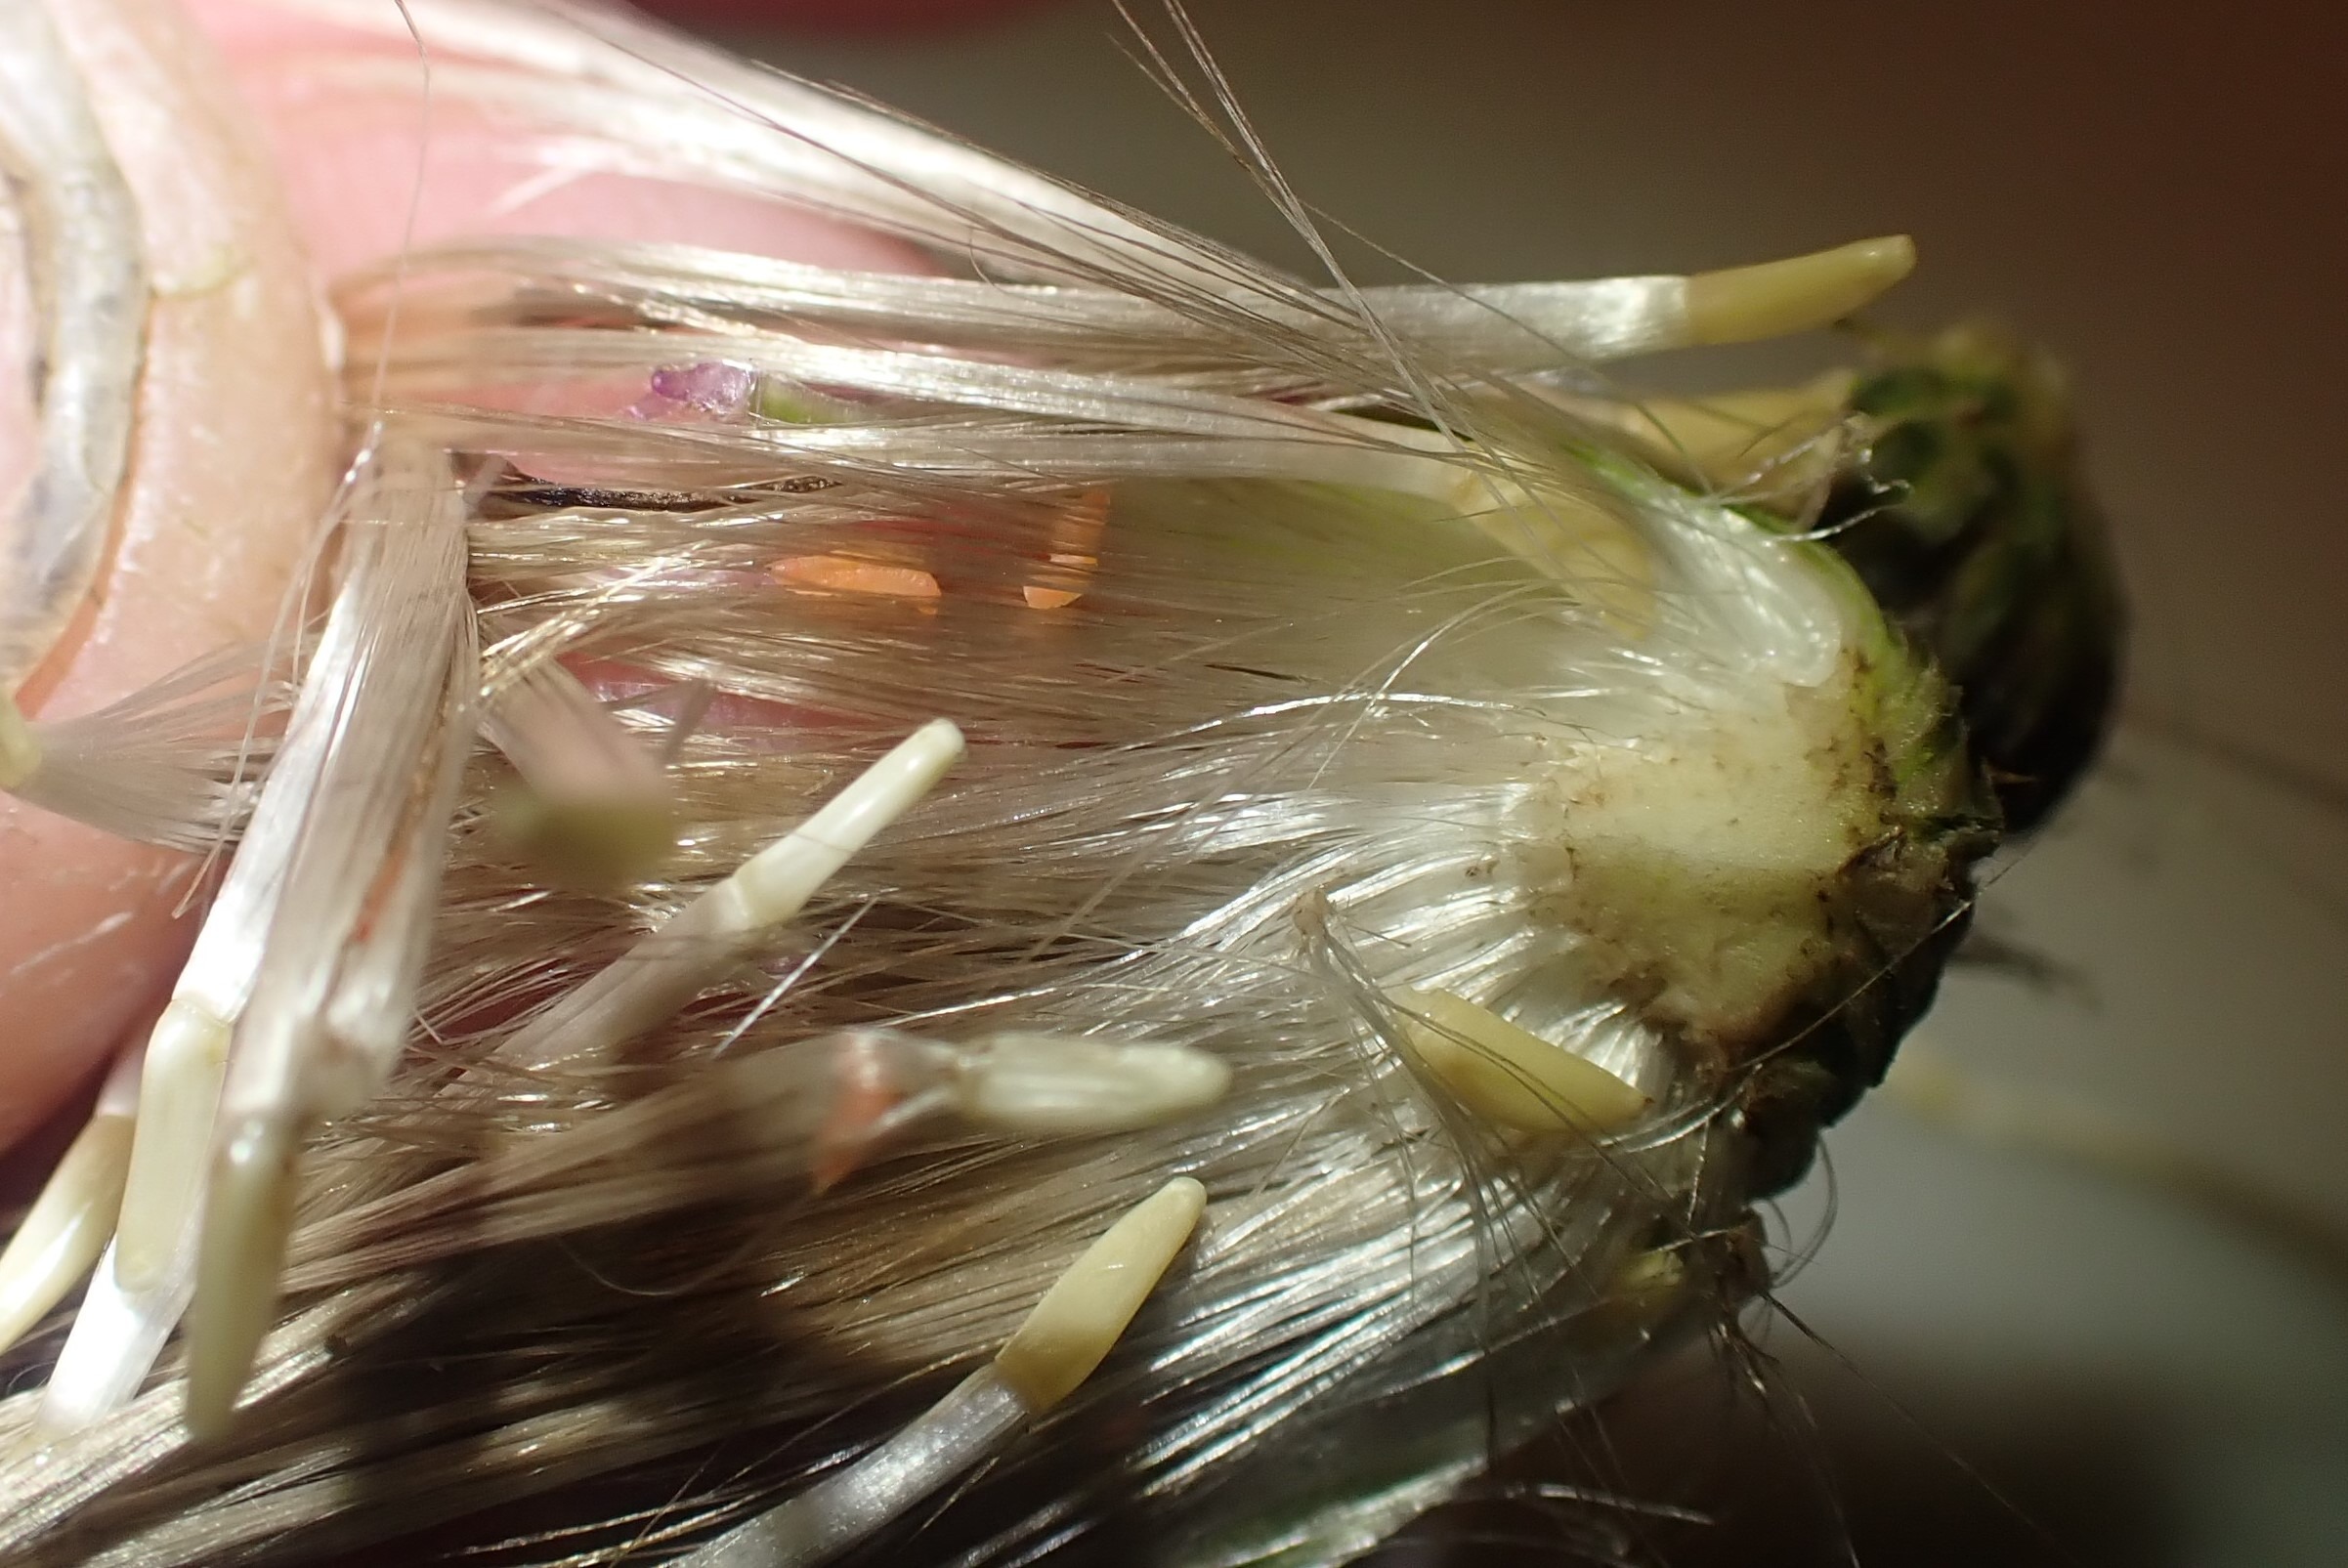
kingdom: Animalia
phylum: Arthropoda
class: Insecta
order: Diptera
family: Cecidomyiidae
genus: Jaapiella
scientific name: Jaapiella cirsiicola
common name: Tidselgalmyg
